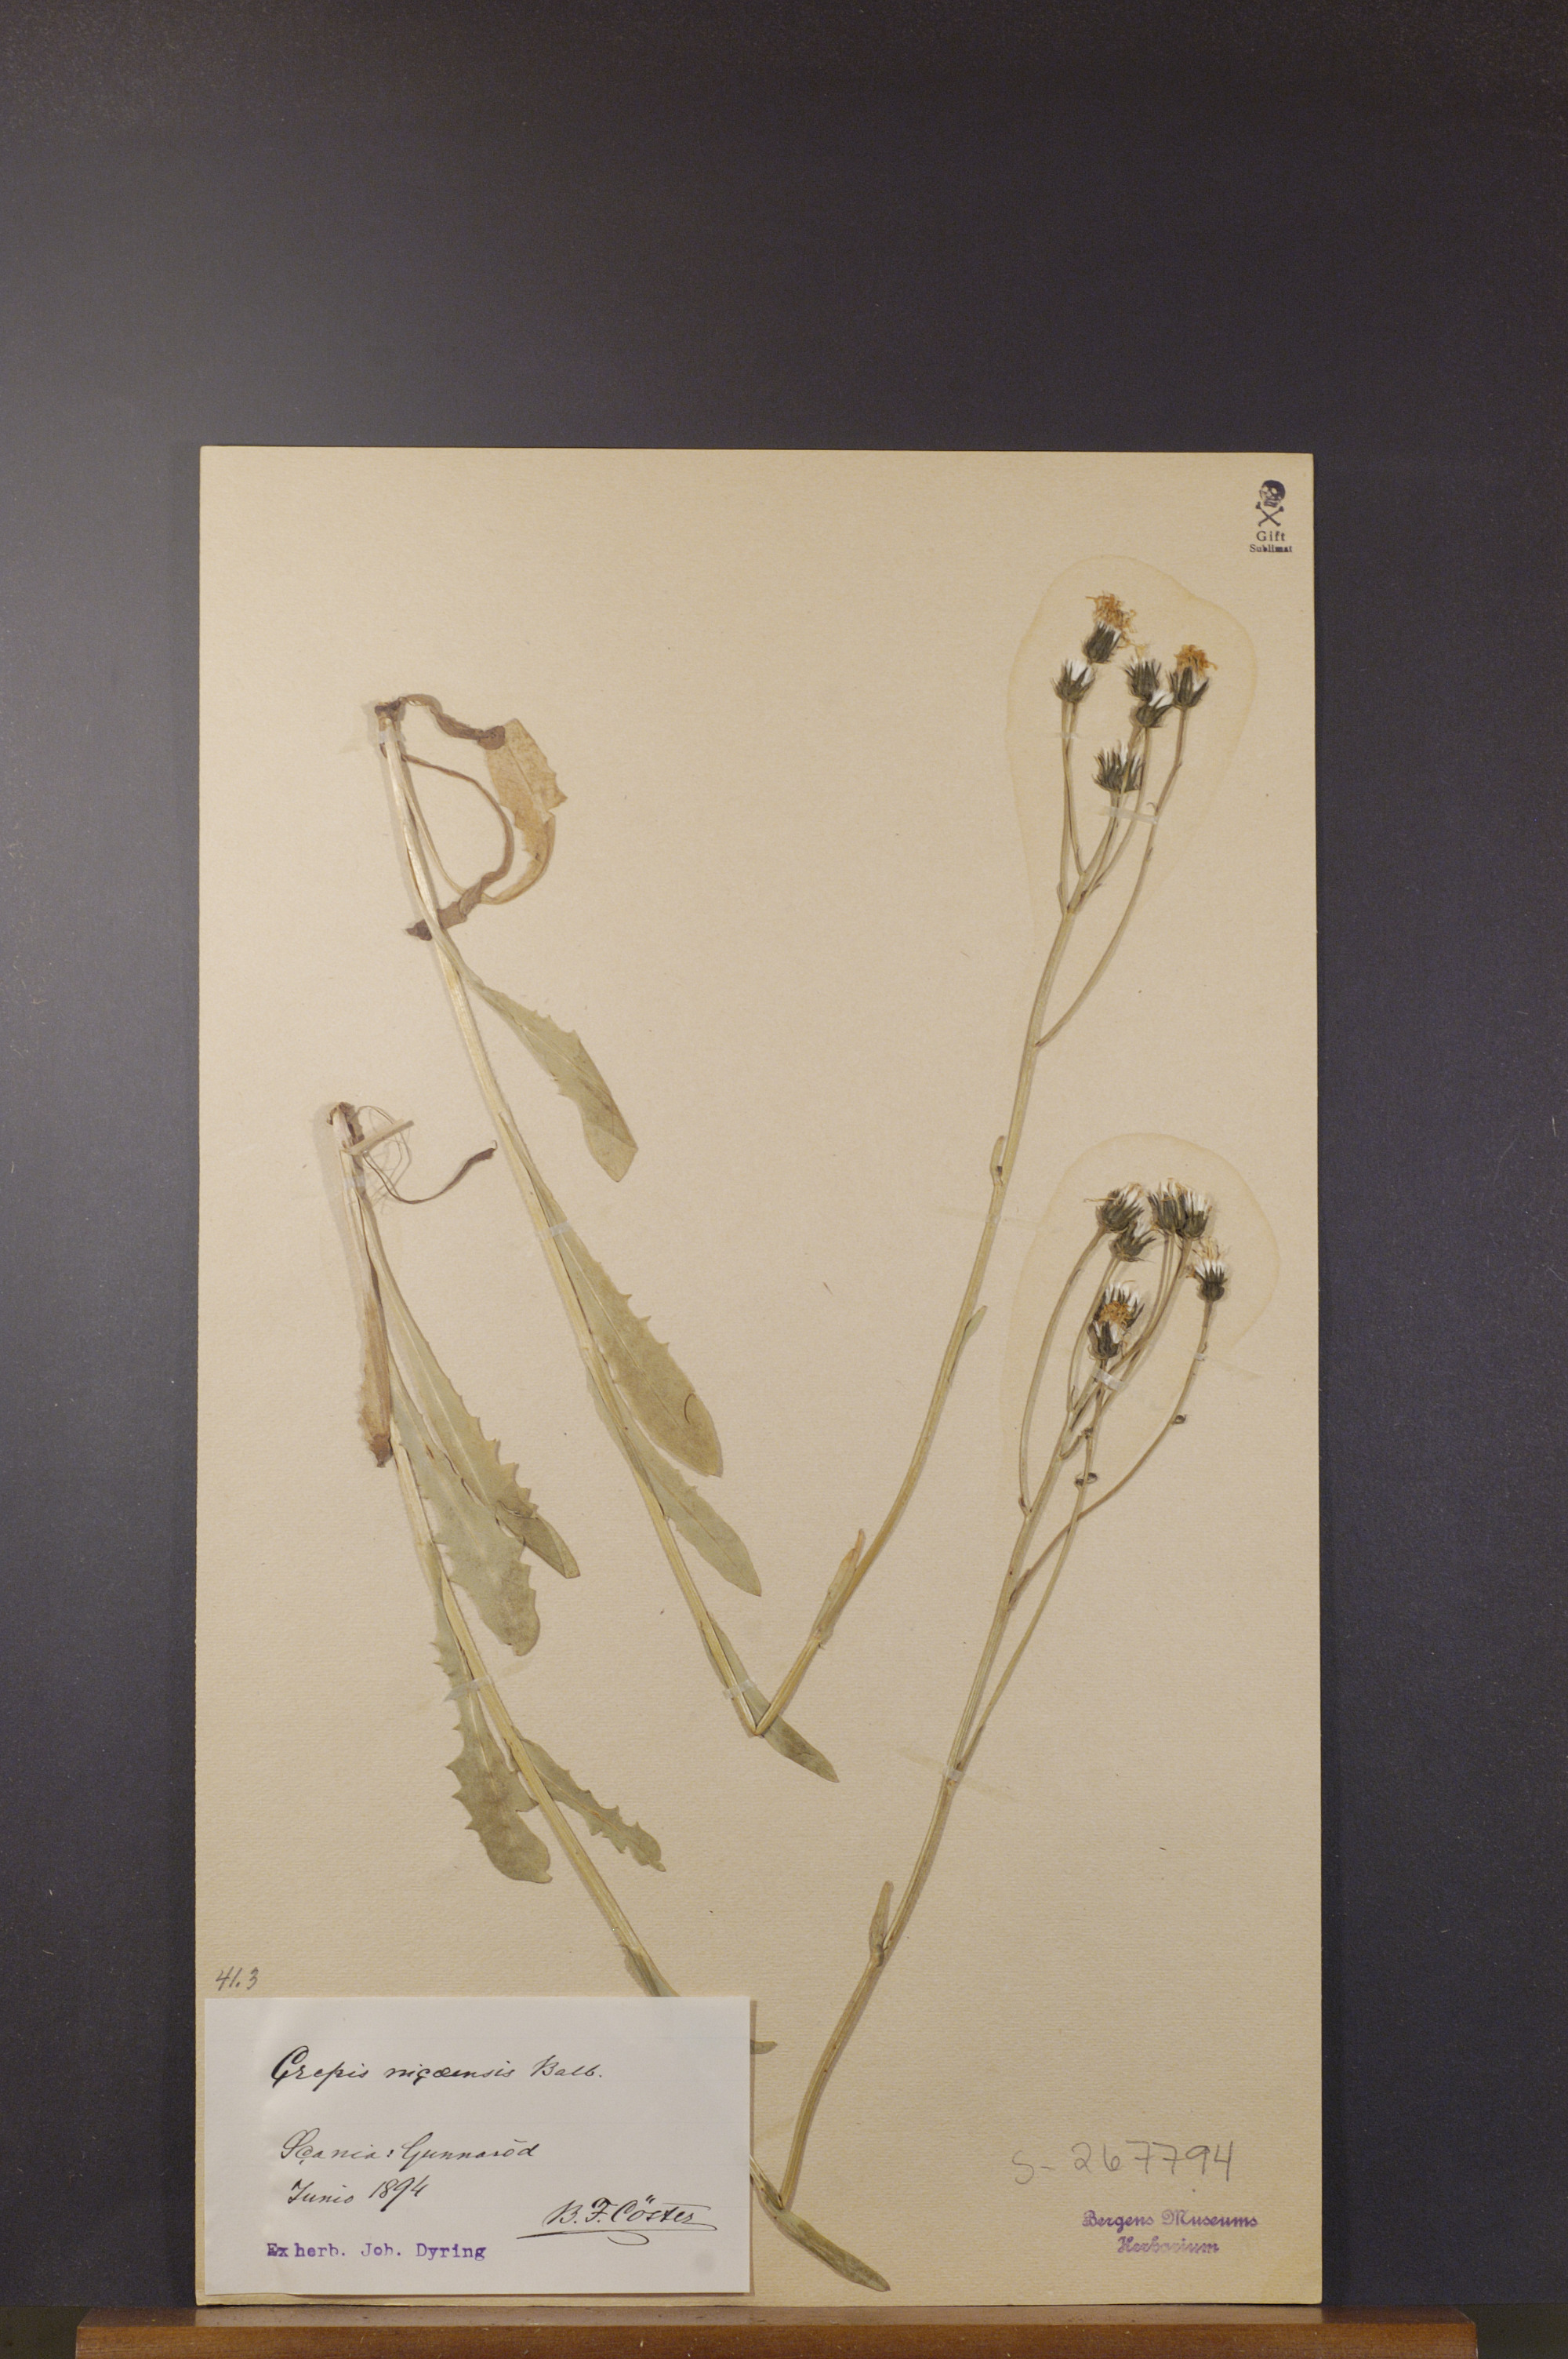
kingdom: Plantae
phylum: Tracheophyta
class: Magnoliopsida
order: Asterales
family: Asteraceae
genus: Crepis
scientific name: Crepis nicaeensis
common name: Turkish hawksbeard
